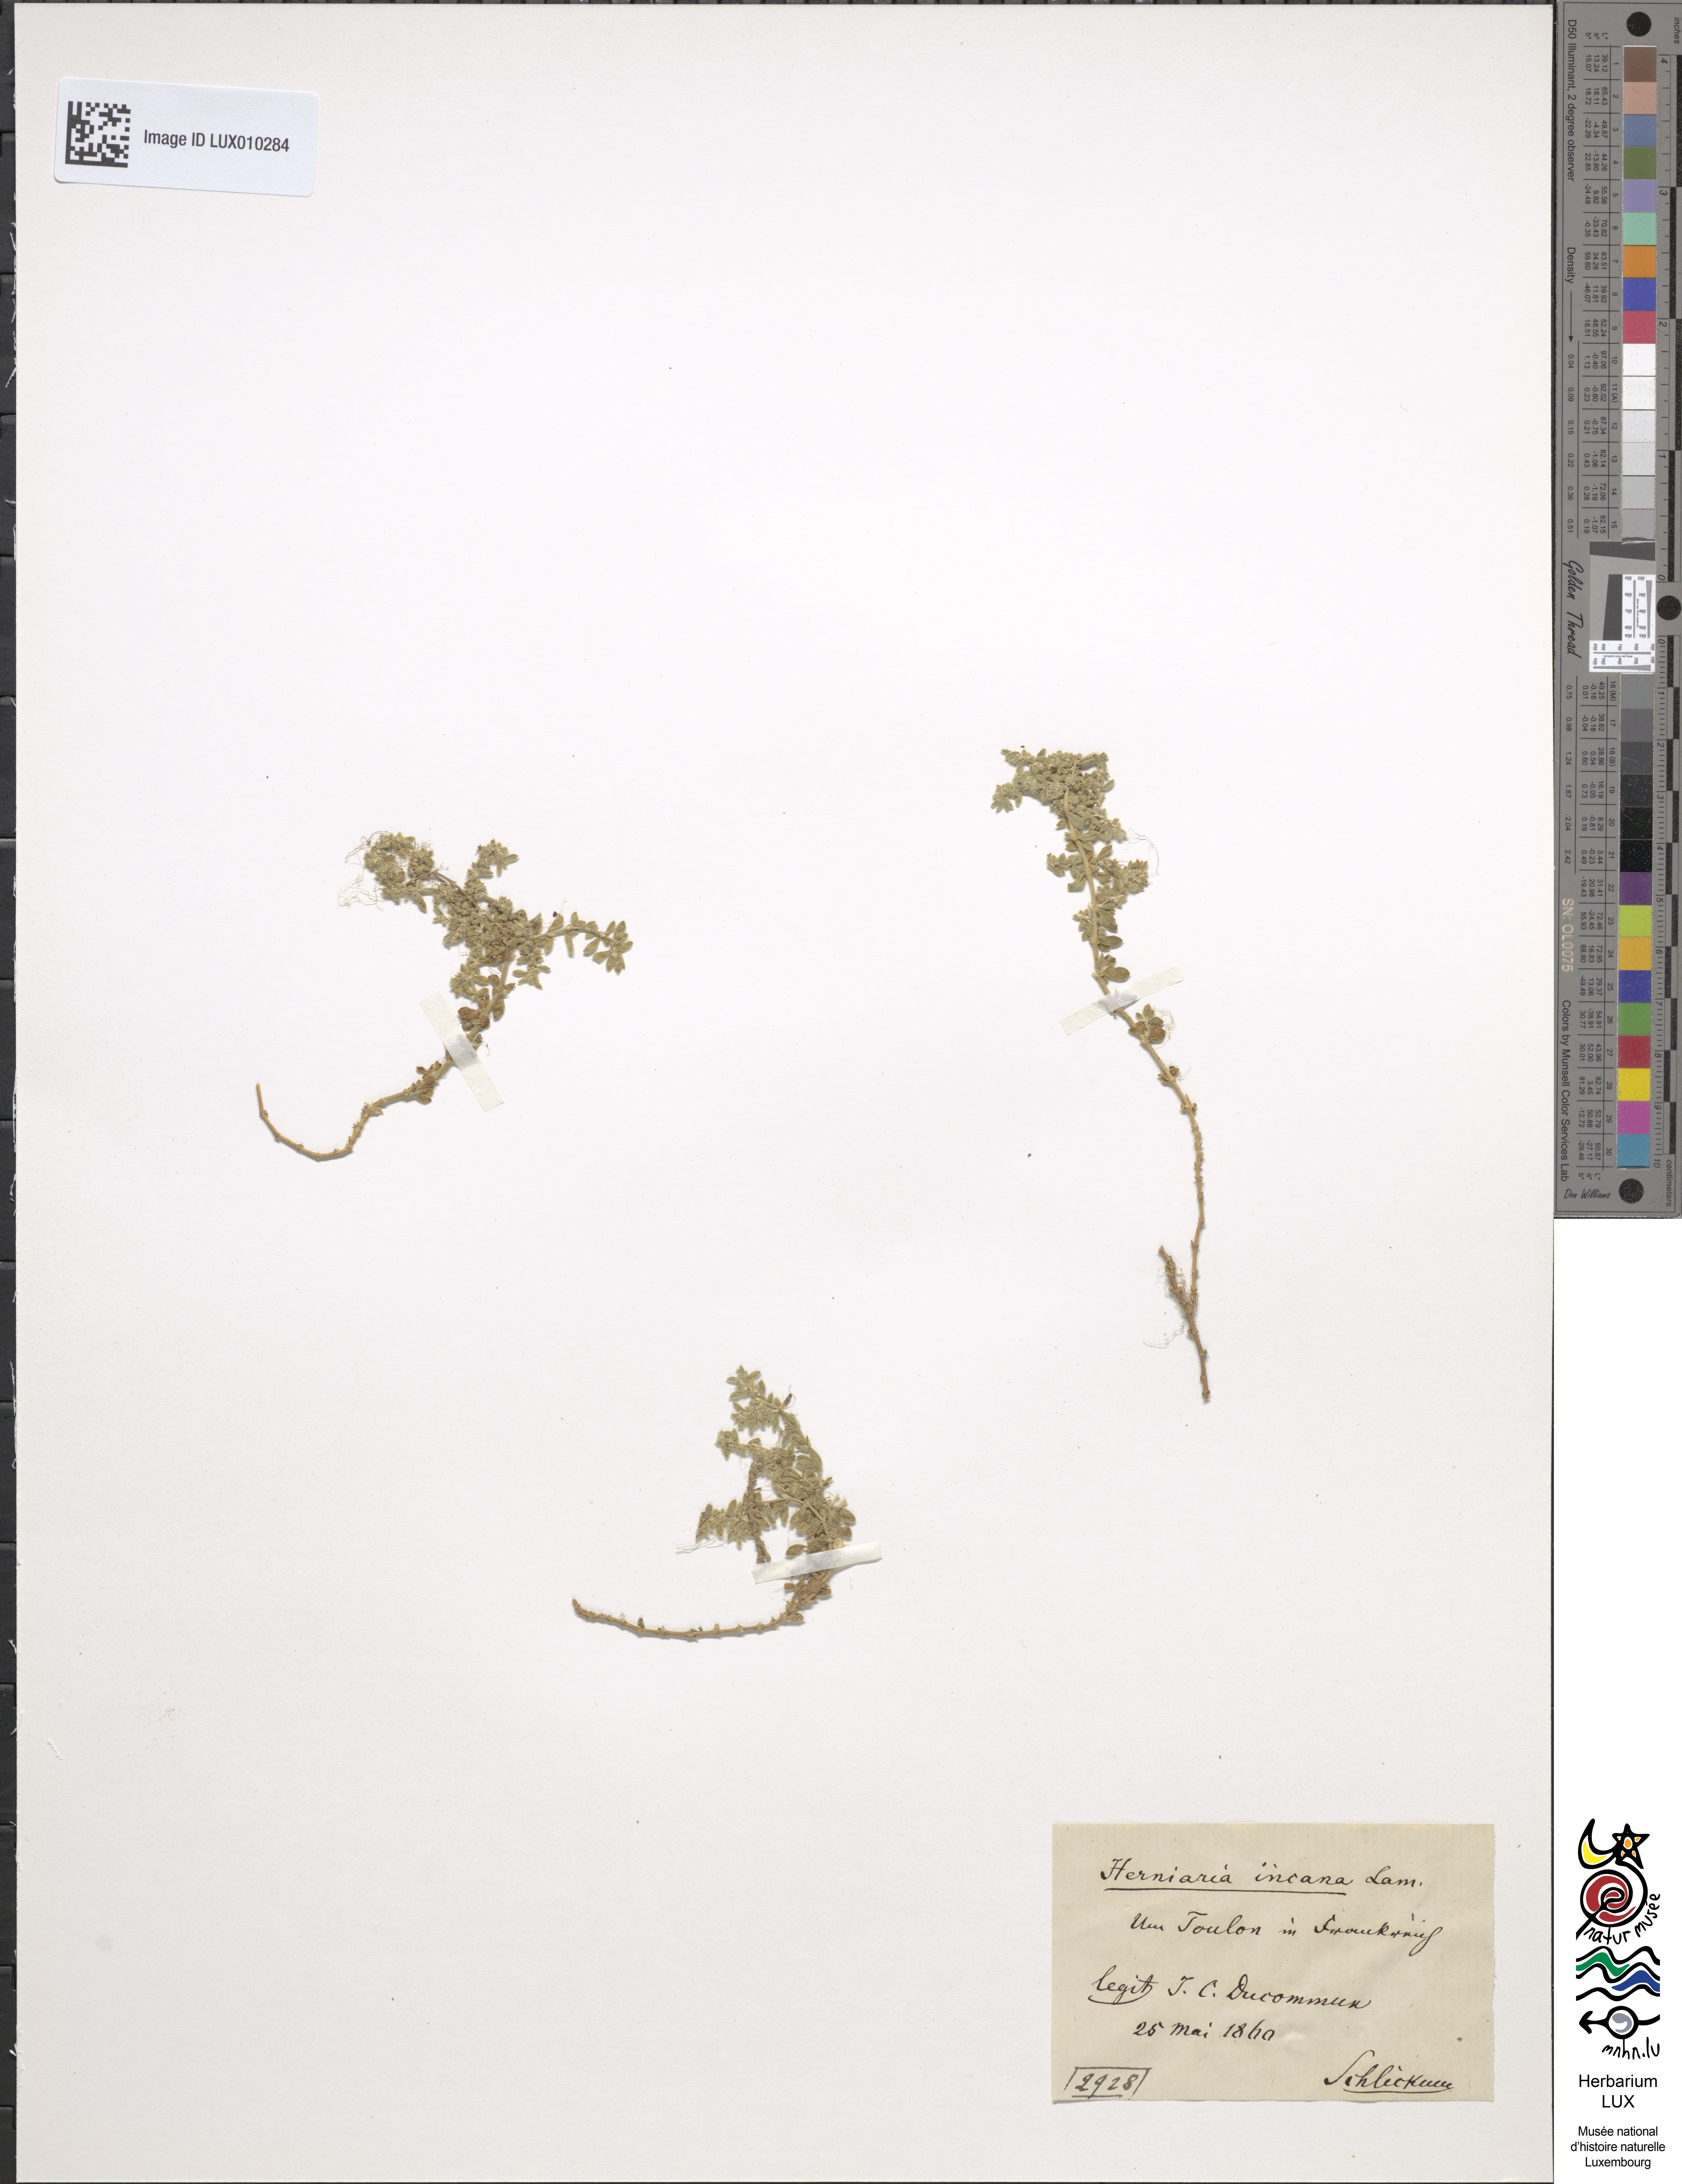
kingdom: Plantae
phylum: Tracheophyta
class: Magnoliopsida
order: Caryophyllales
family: Caryophyllaceae
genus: Herniaria
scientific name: Herniaria incana
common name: Gray rupturewort
